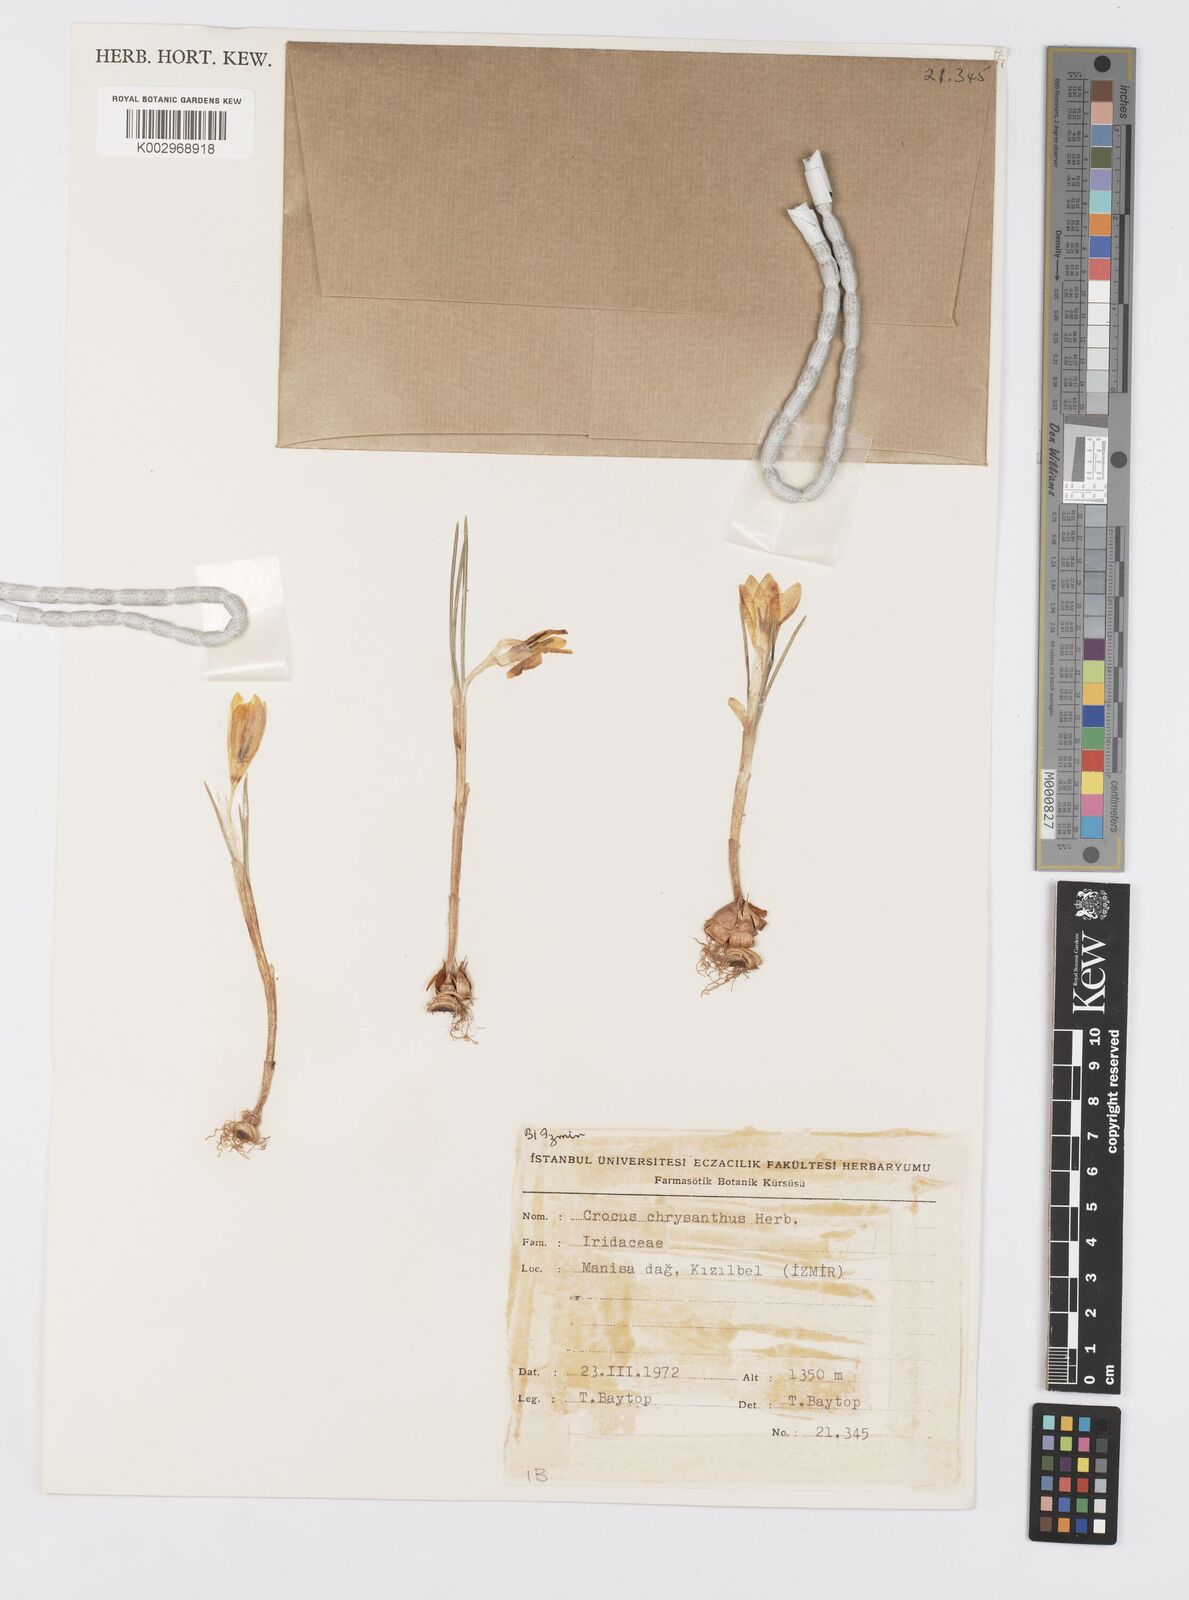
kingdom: Plantae
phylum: Tracheophyta
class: Liliopsida
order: Asparagales
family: Iridaceae
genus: Crocus
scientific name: Crocus
